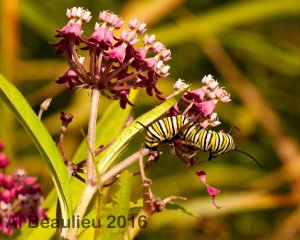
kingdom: Animalia
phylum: Arthropoda
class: Insecta
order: Lepidoptera
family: Nymphalidae
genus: Danaus
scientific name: Danaus plexippus
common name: Monarch
